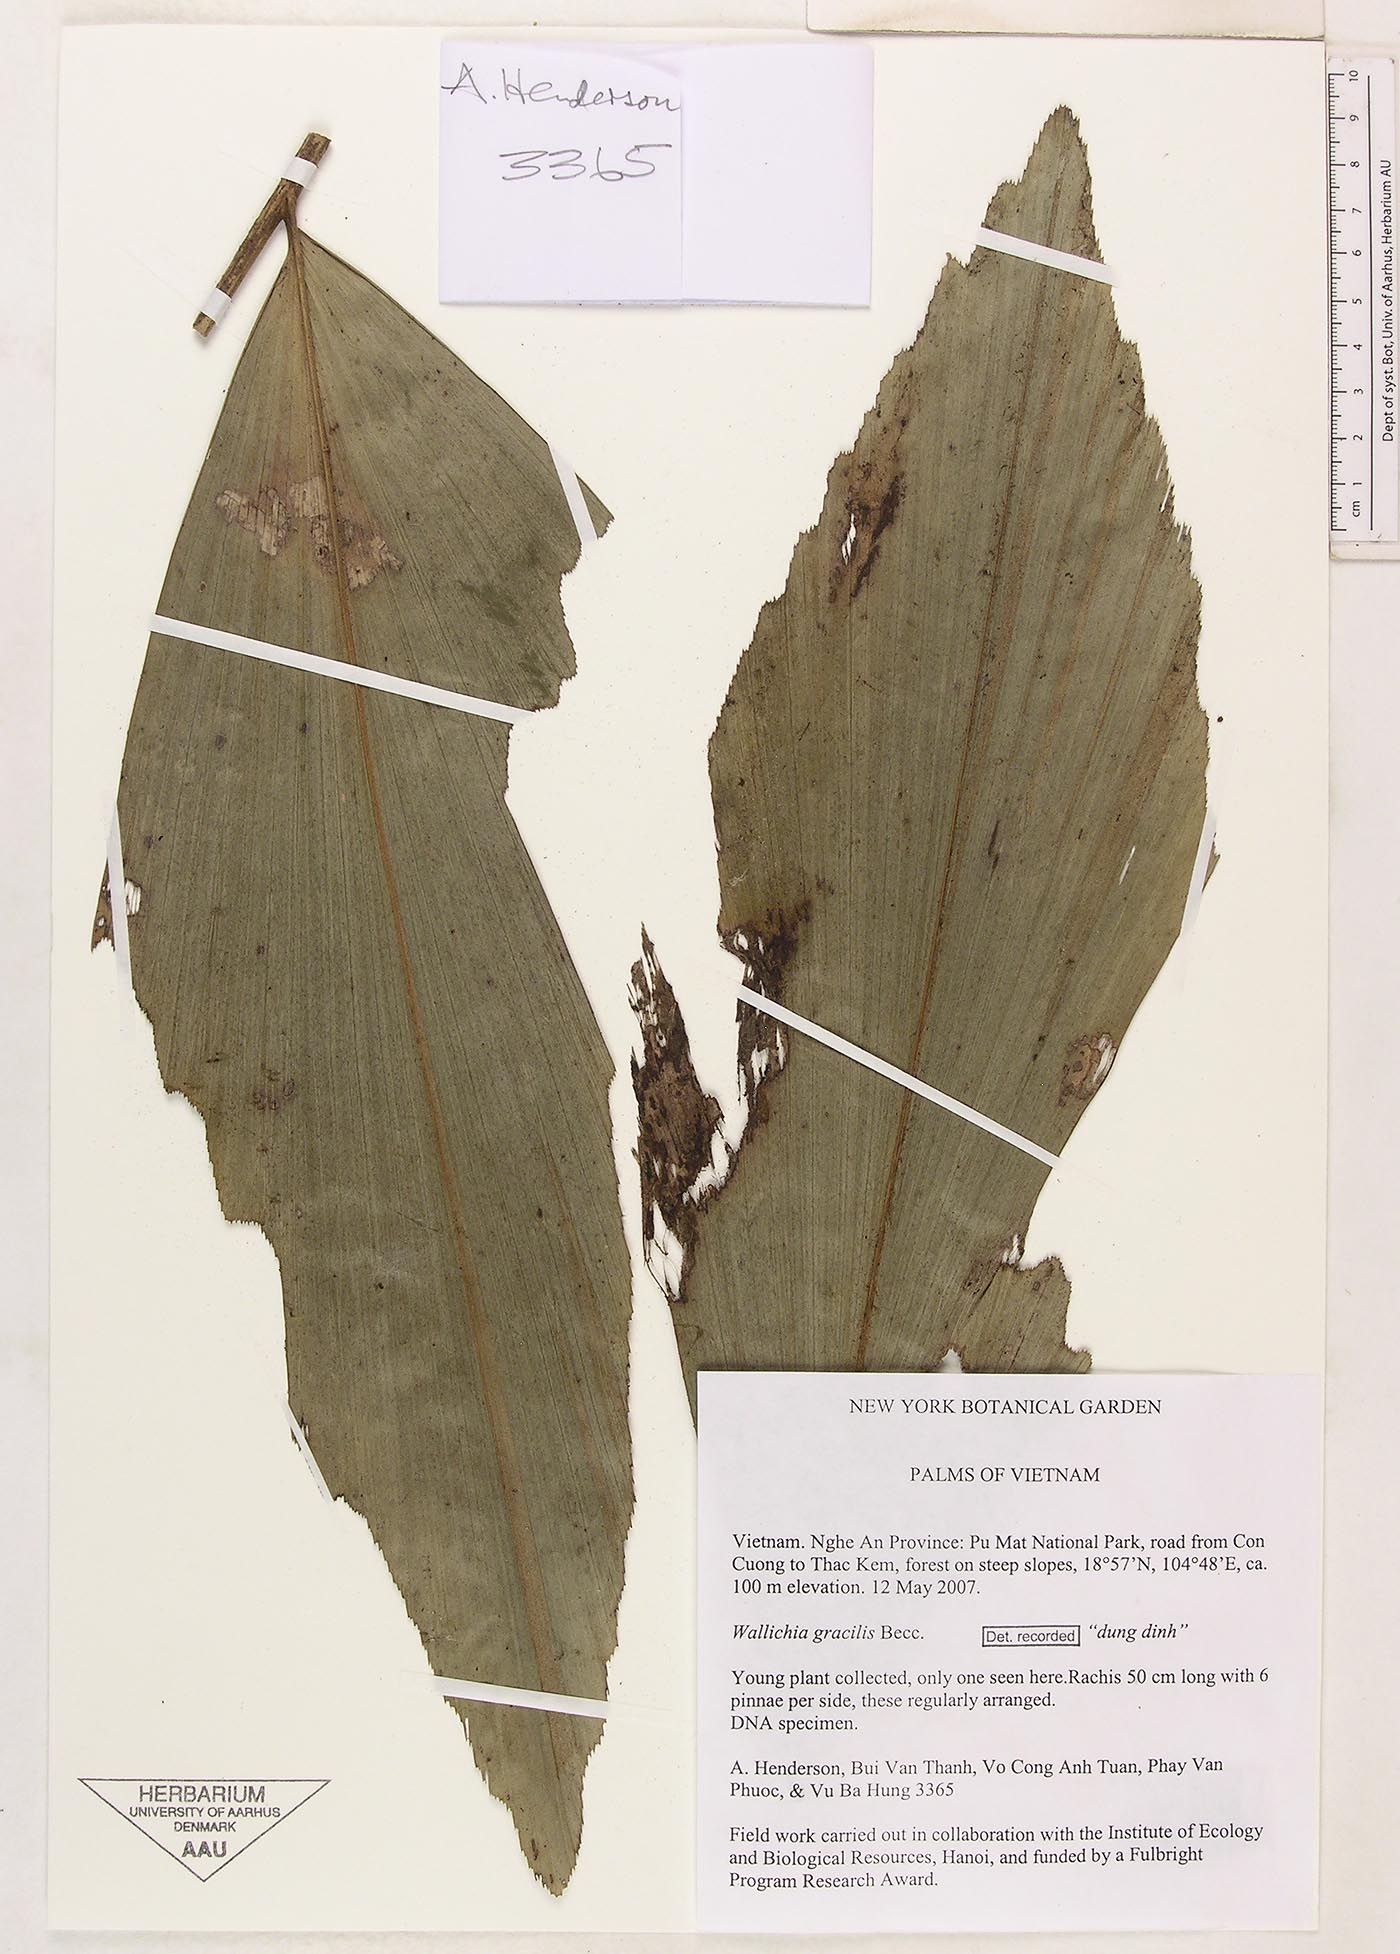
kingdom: Plantae
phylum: Tracheophyta
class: Liliopsida
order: Arecales
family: Arecaceae
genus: Wallichia
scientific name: Wallichia gracilis
